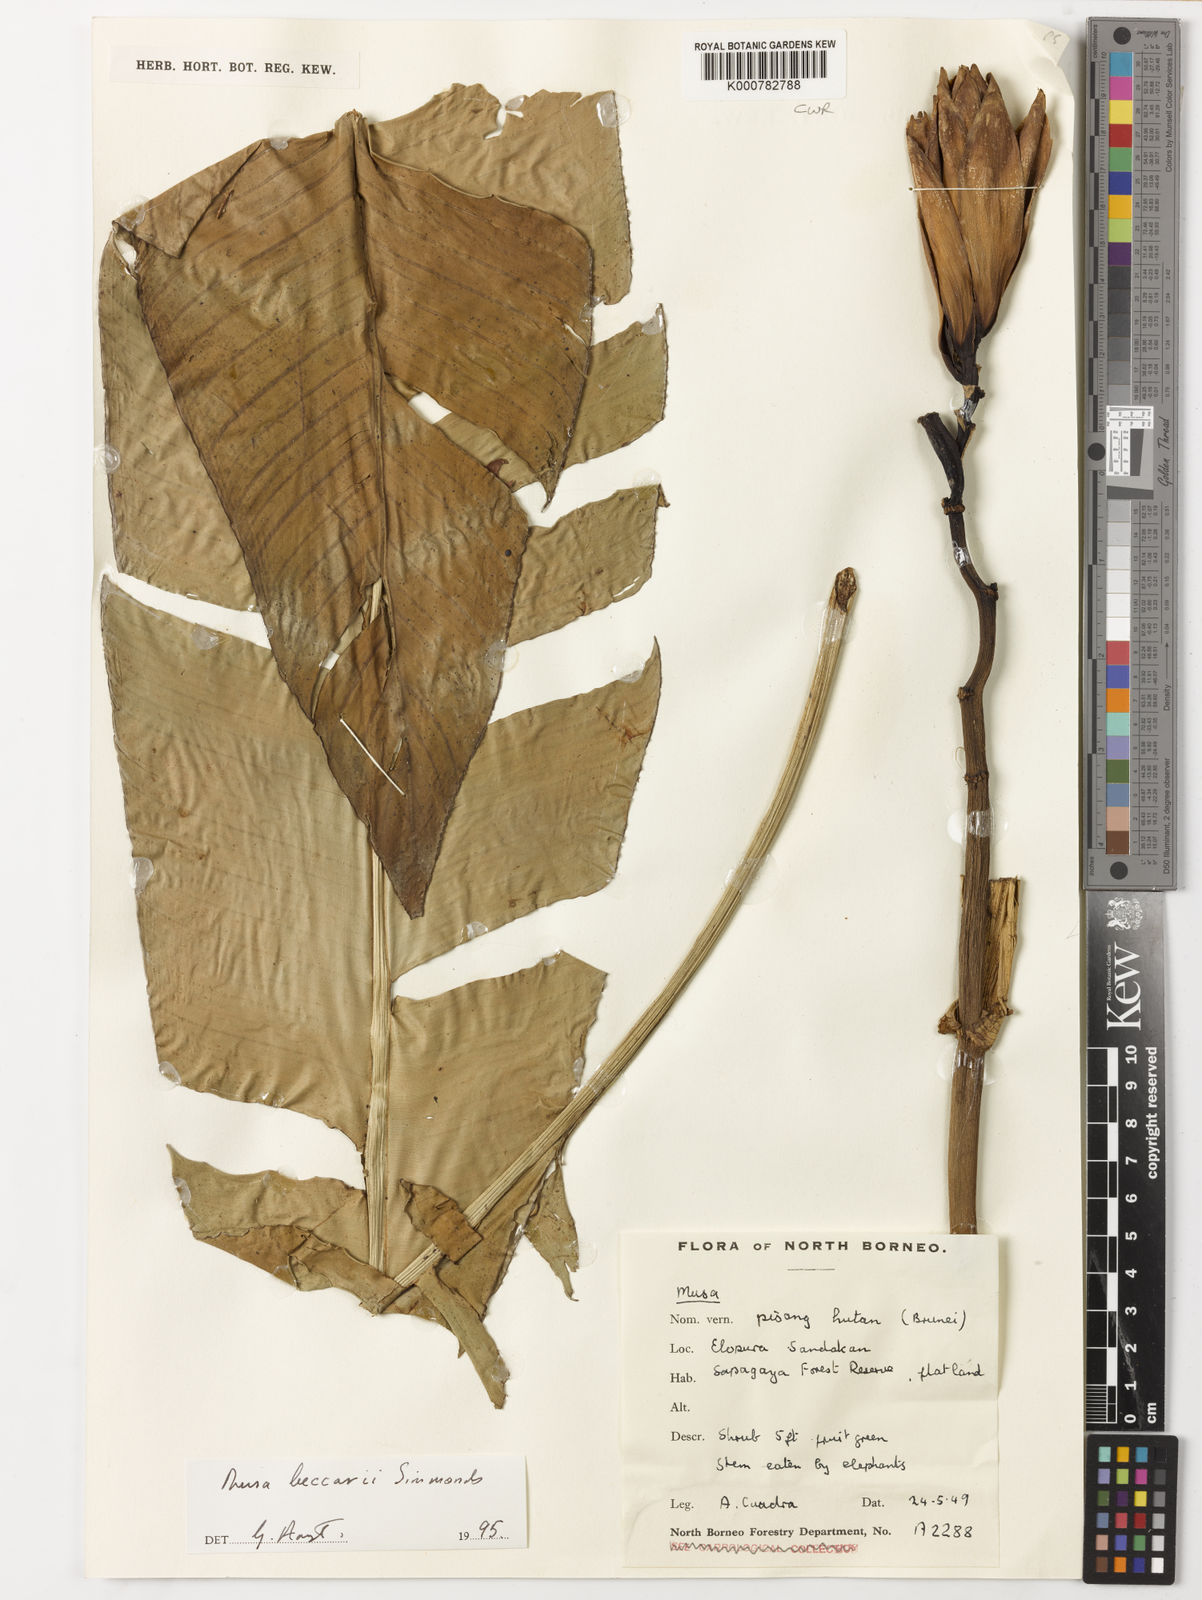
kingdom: Plantae
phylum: Tracheophyta
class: Liliopsida
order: Zingiberales
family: Musaceae
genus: Musa
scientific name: Musa beccarii
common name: Pisang tajak
